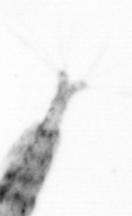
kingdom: Animalia
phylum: Arthropoda
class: Copepoda
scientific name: Copepoda
